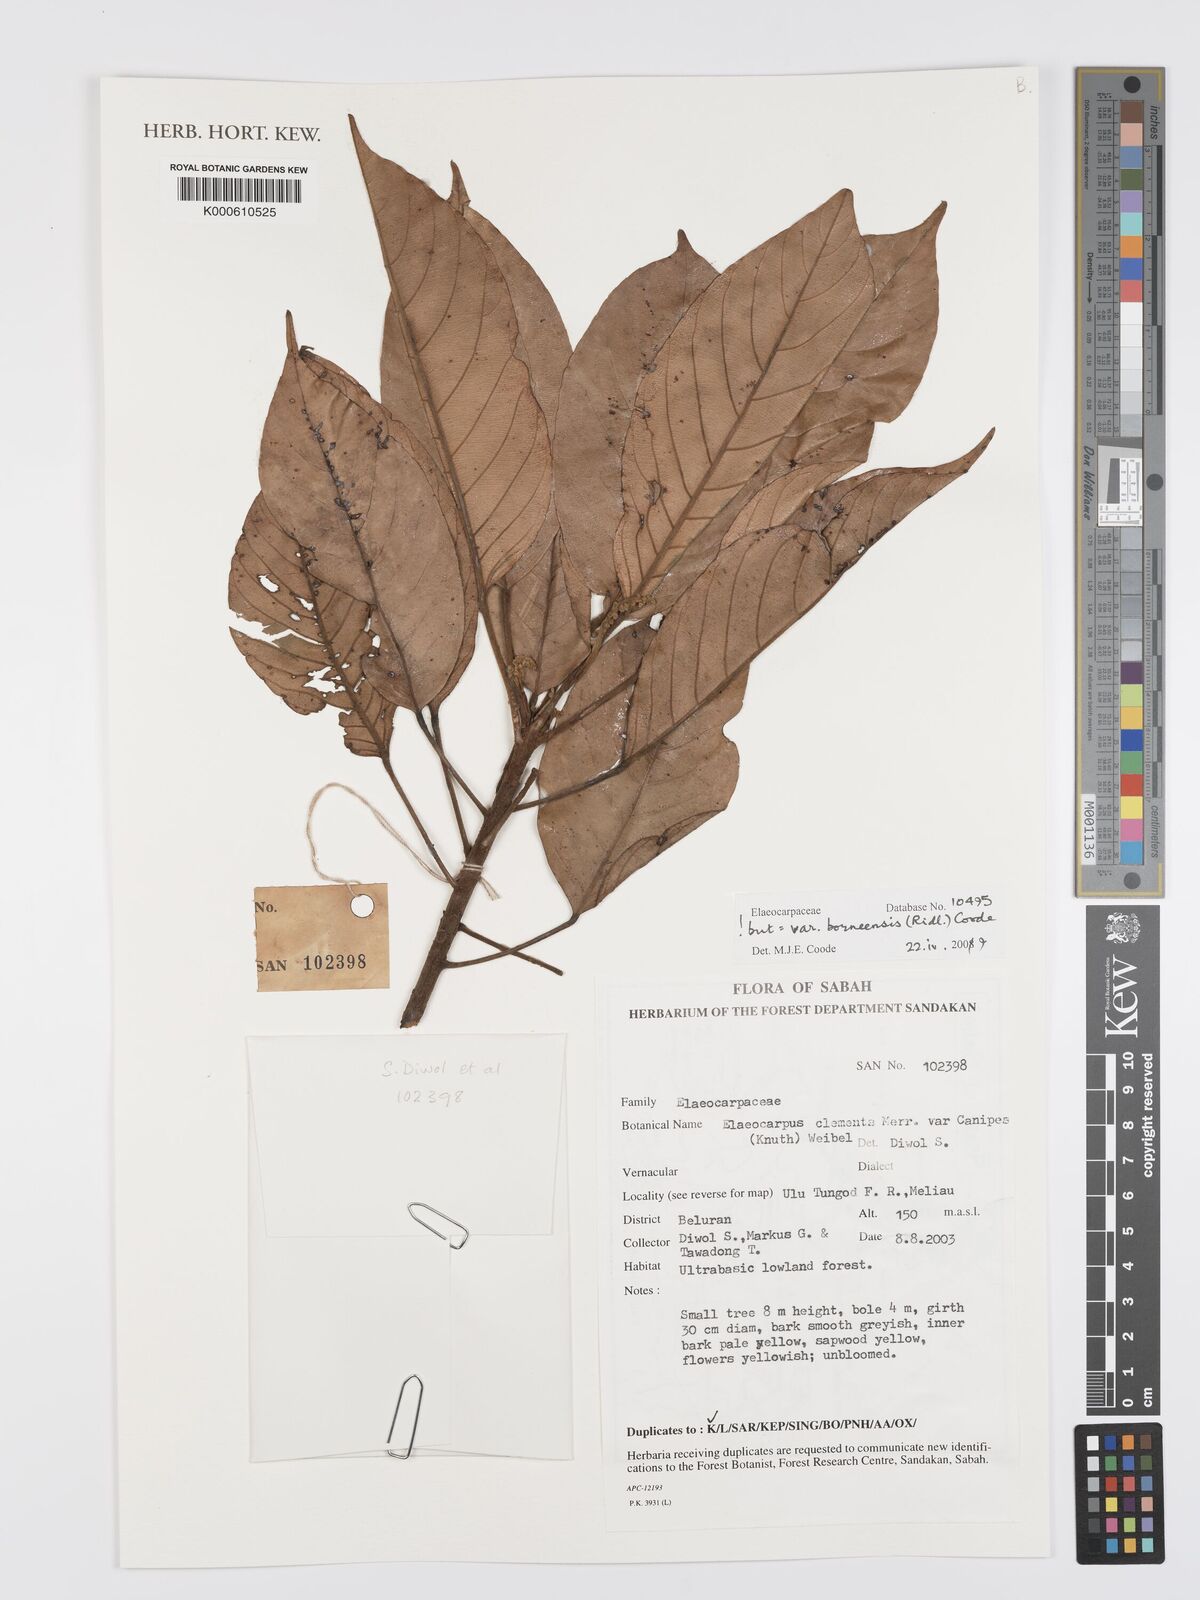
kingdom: Plantae
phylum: Tracheophyta
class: Magnoliopsida
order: Oxalidales
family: Elaeocarpaceae
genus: Elaeocarpus
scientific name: Elaeocarpus
